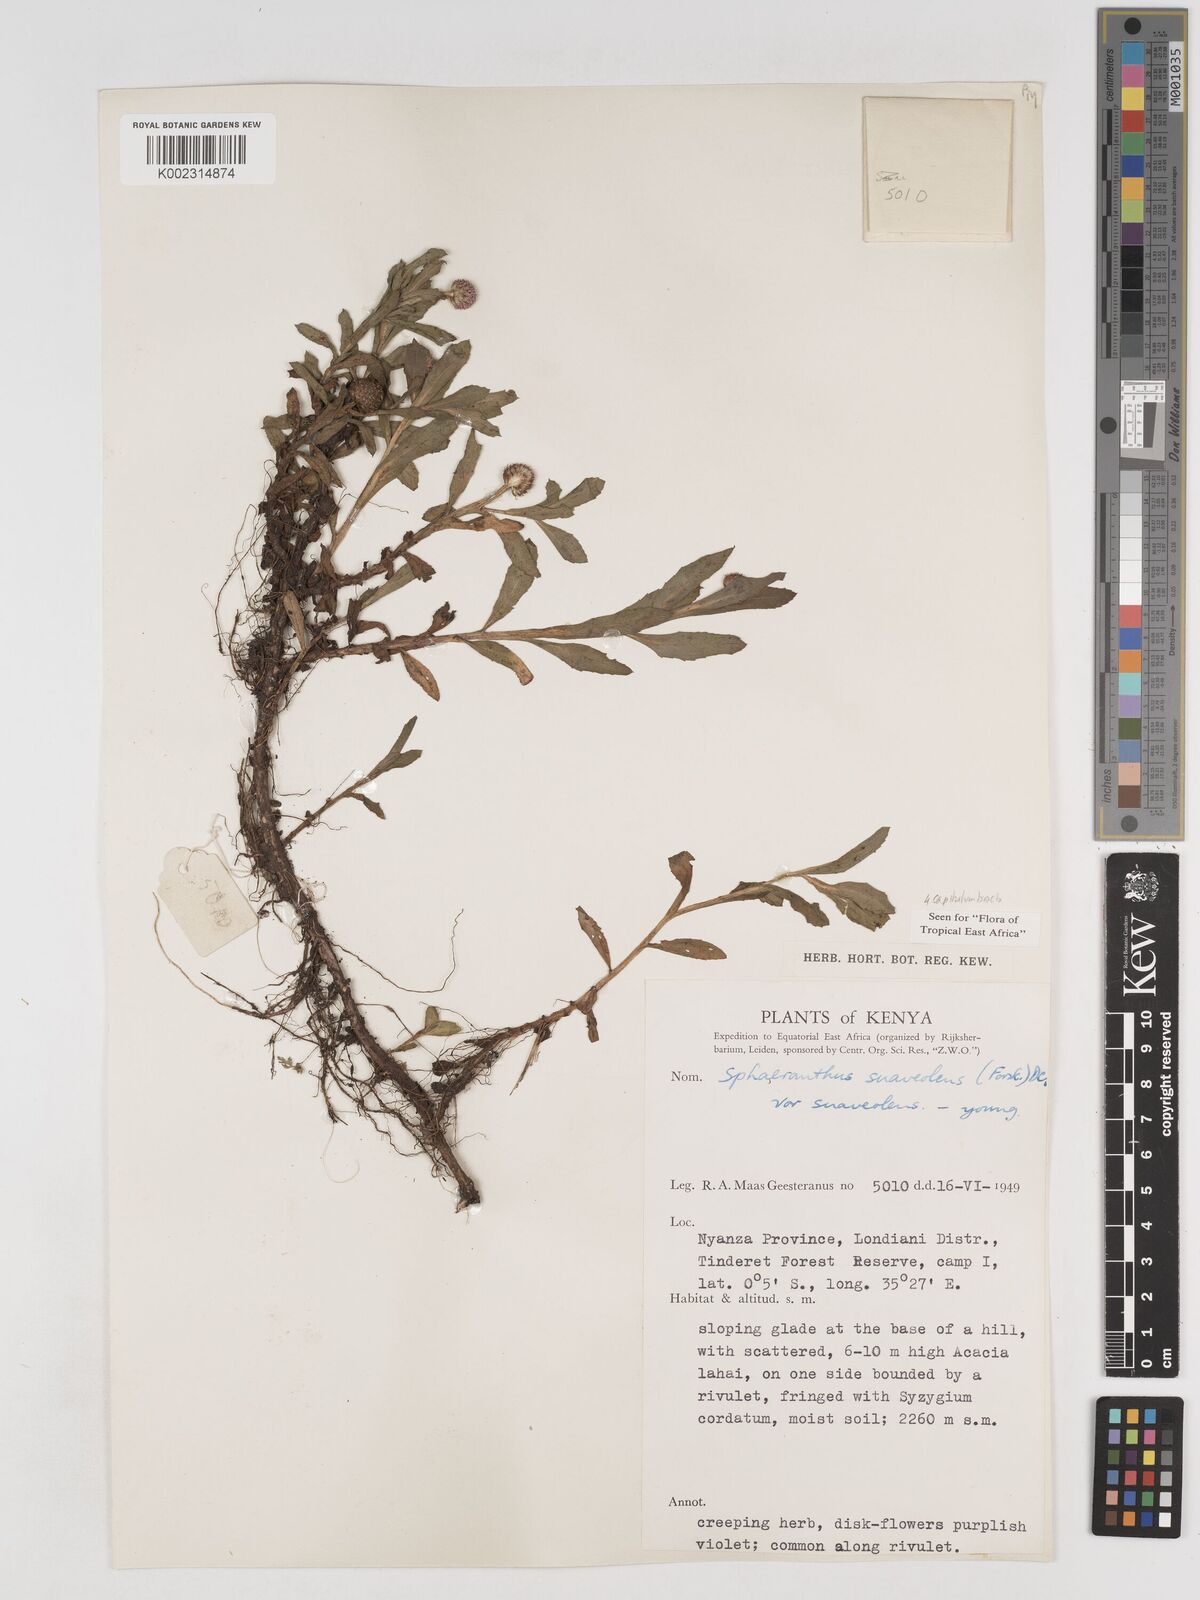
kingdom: Plantae
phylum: Tracheophyta
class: Magnoliopsida
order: Asterales
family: Asteraceae
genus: Sphaeranthus
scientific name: Sphaeranthus suaveolens
